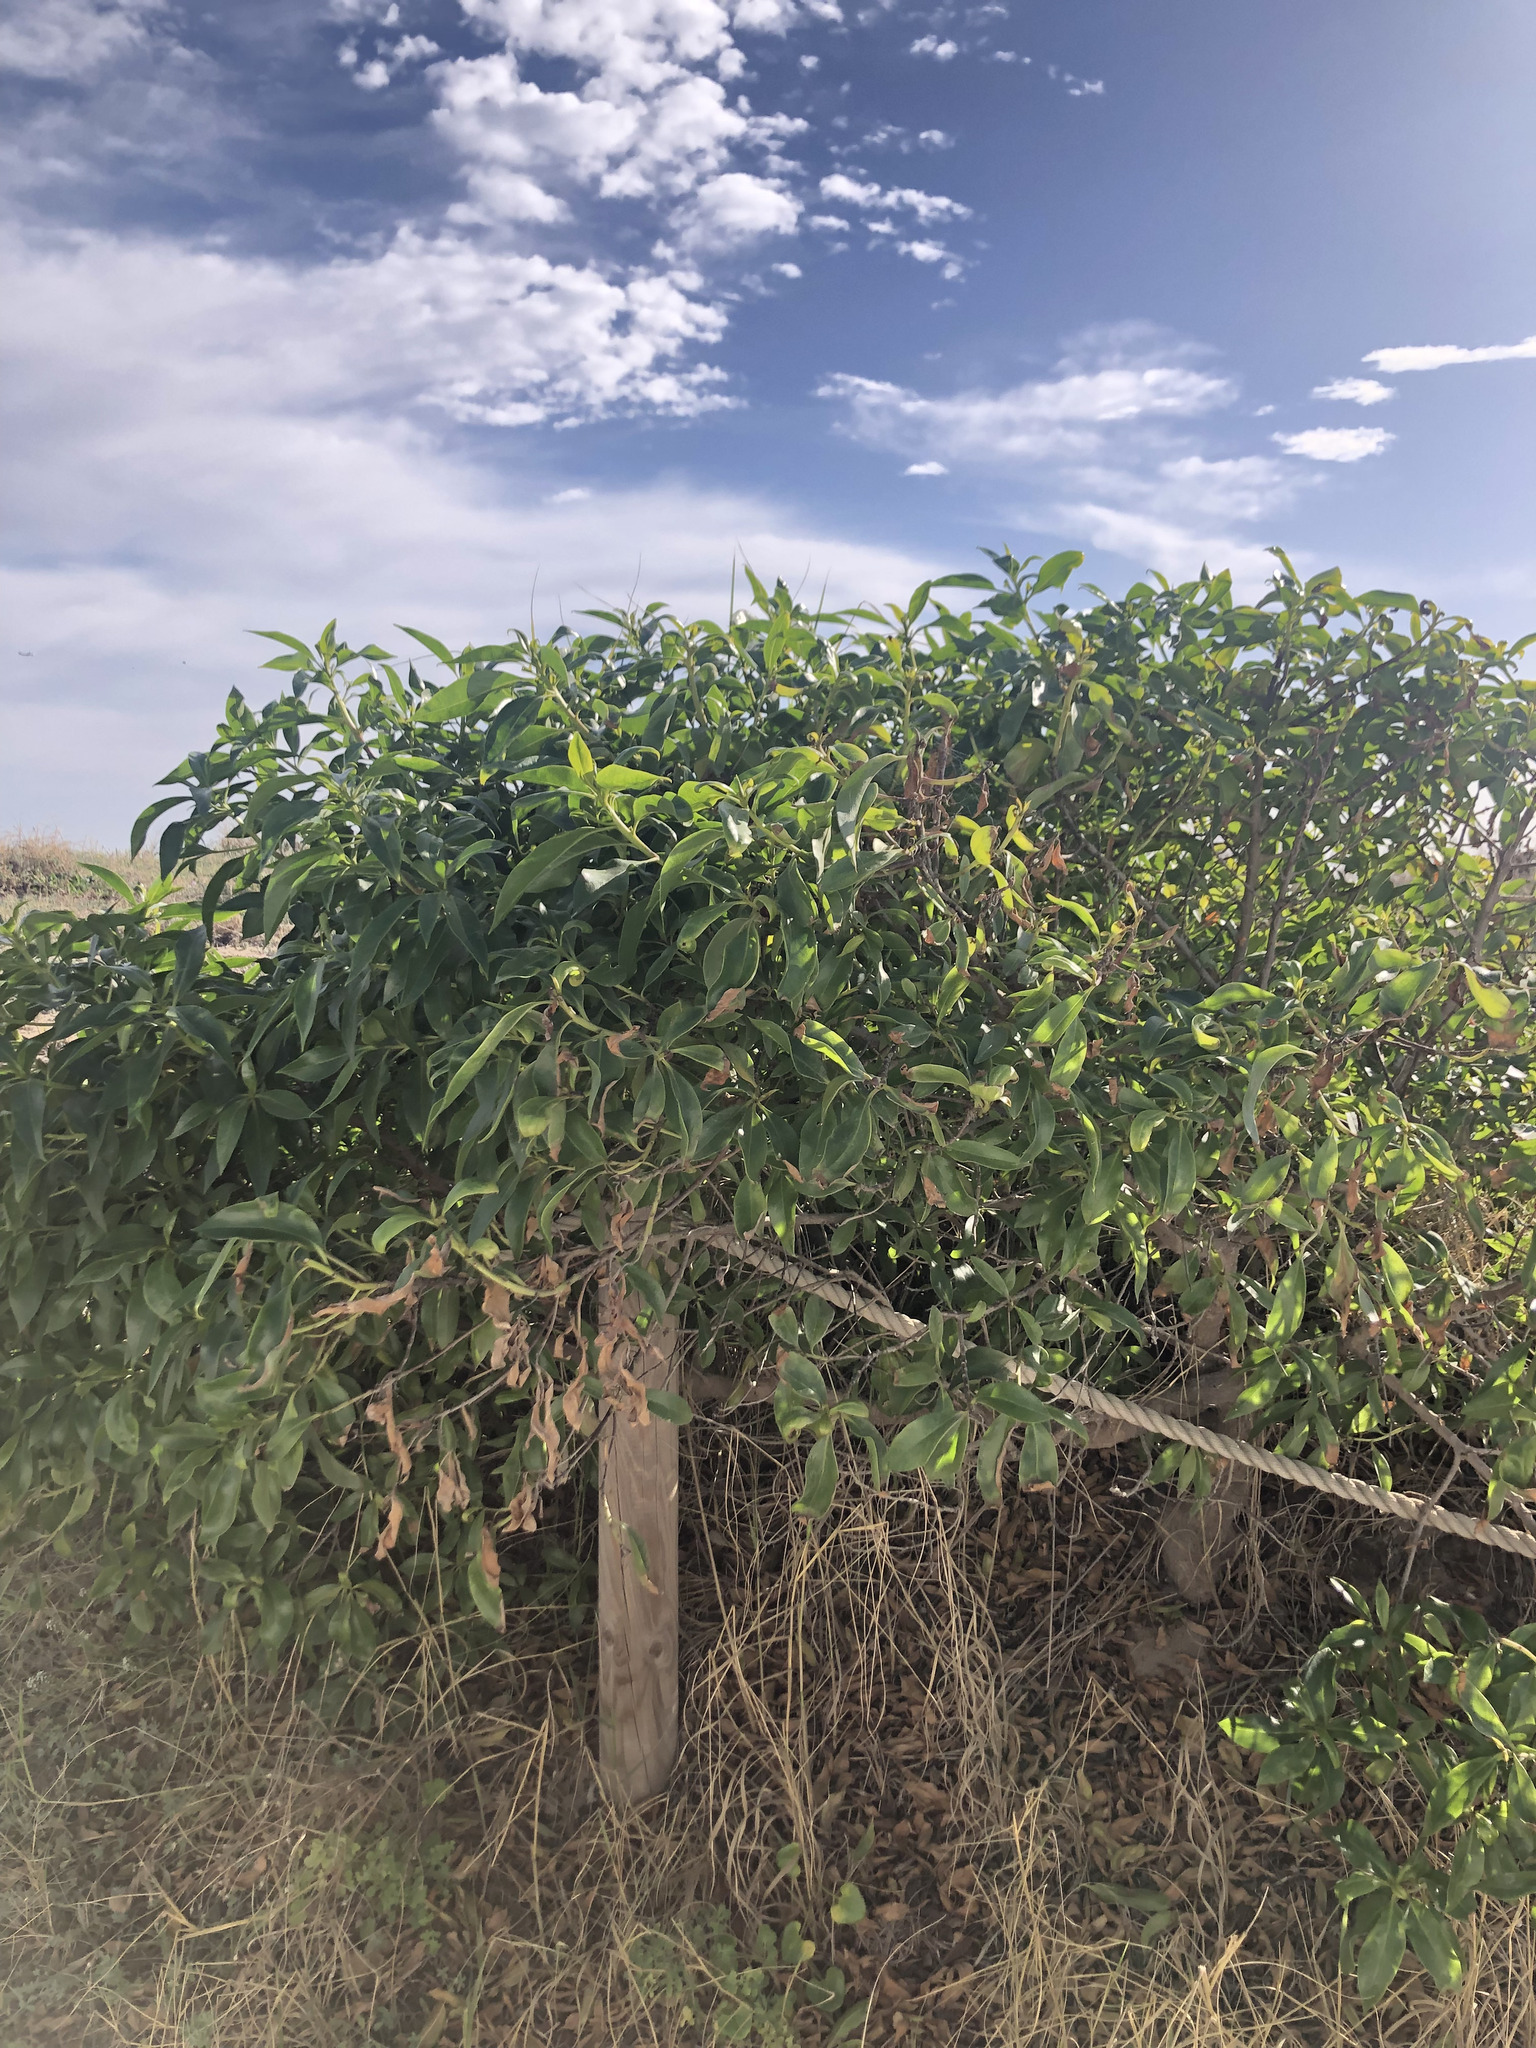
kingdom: Plantae
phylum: Tracheophyta
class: Magnoliopsida
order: Lamiales
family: Scrophulariaceae
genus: Myoporum
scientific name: Myoporum laetum
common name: Ngaio tree
